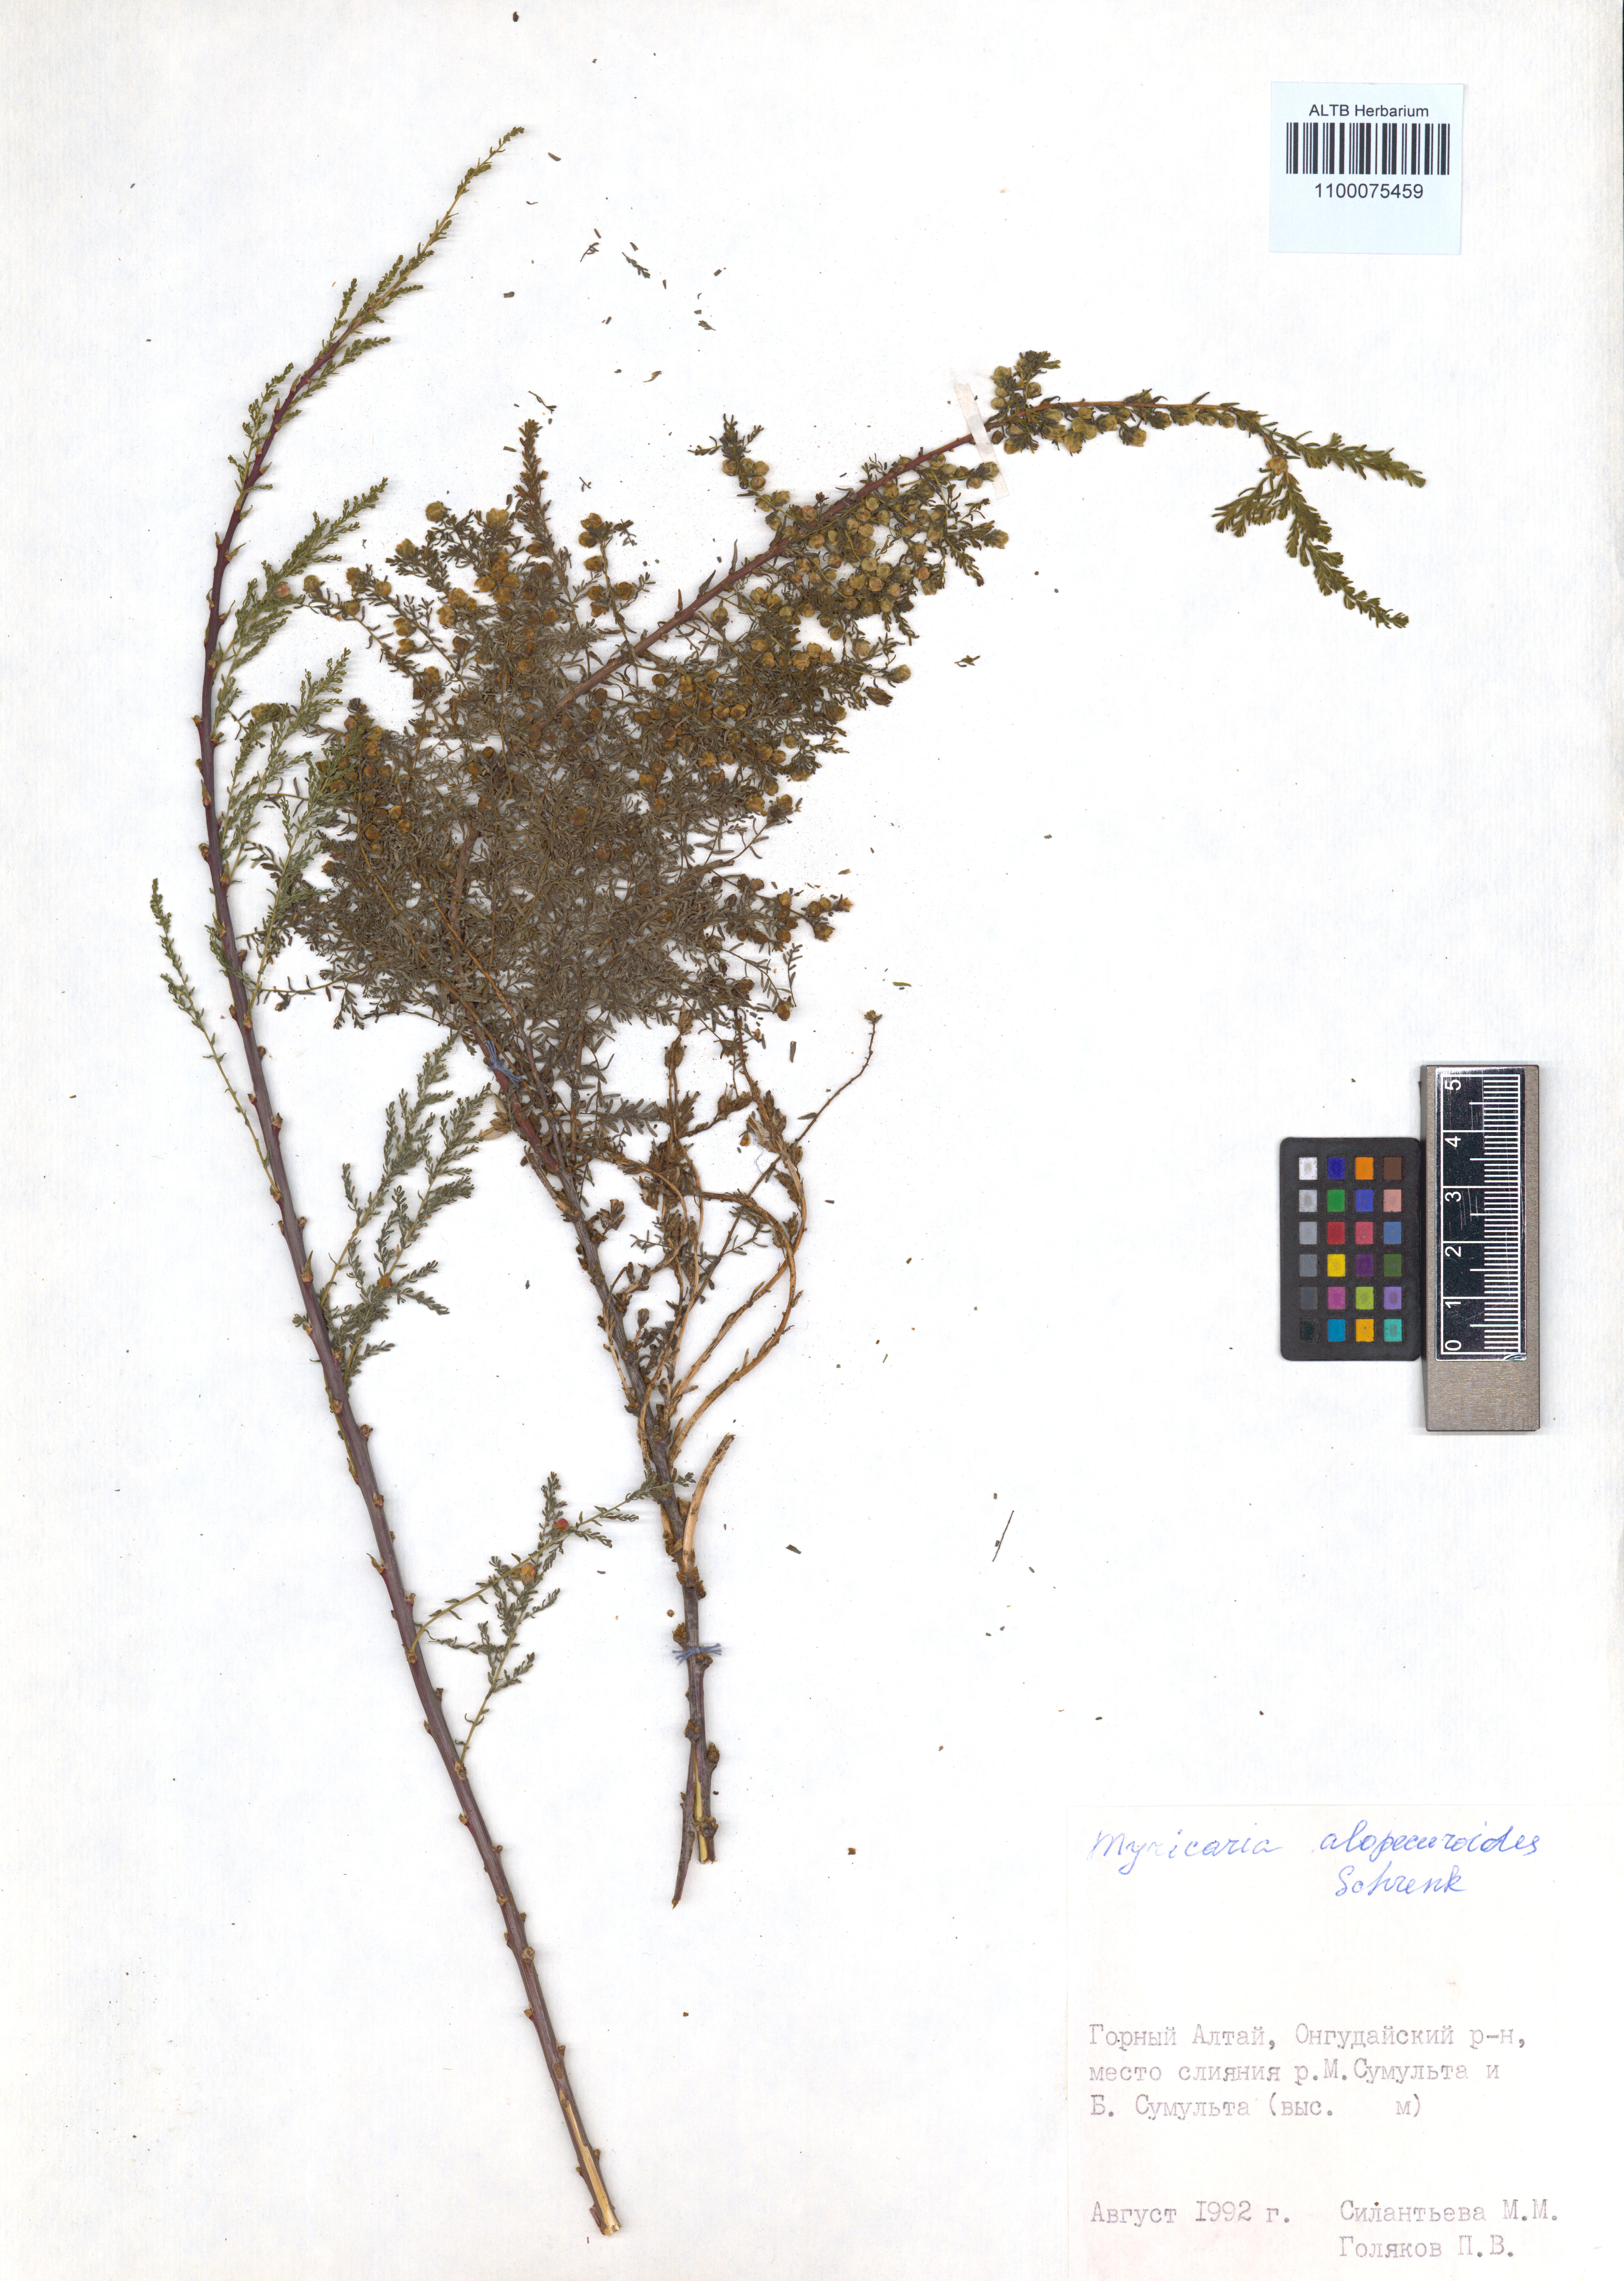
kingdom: Plantae
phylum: Tracheophyta
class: Magnoliopsida
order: Caryophyllales
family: Tamaricaceae
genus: Myricaria
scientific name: Myricaria bracteata
